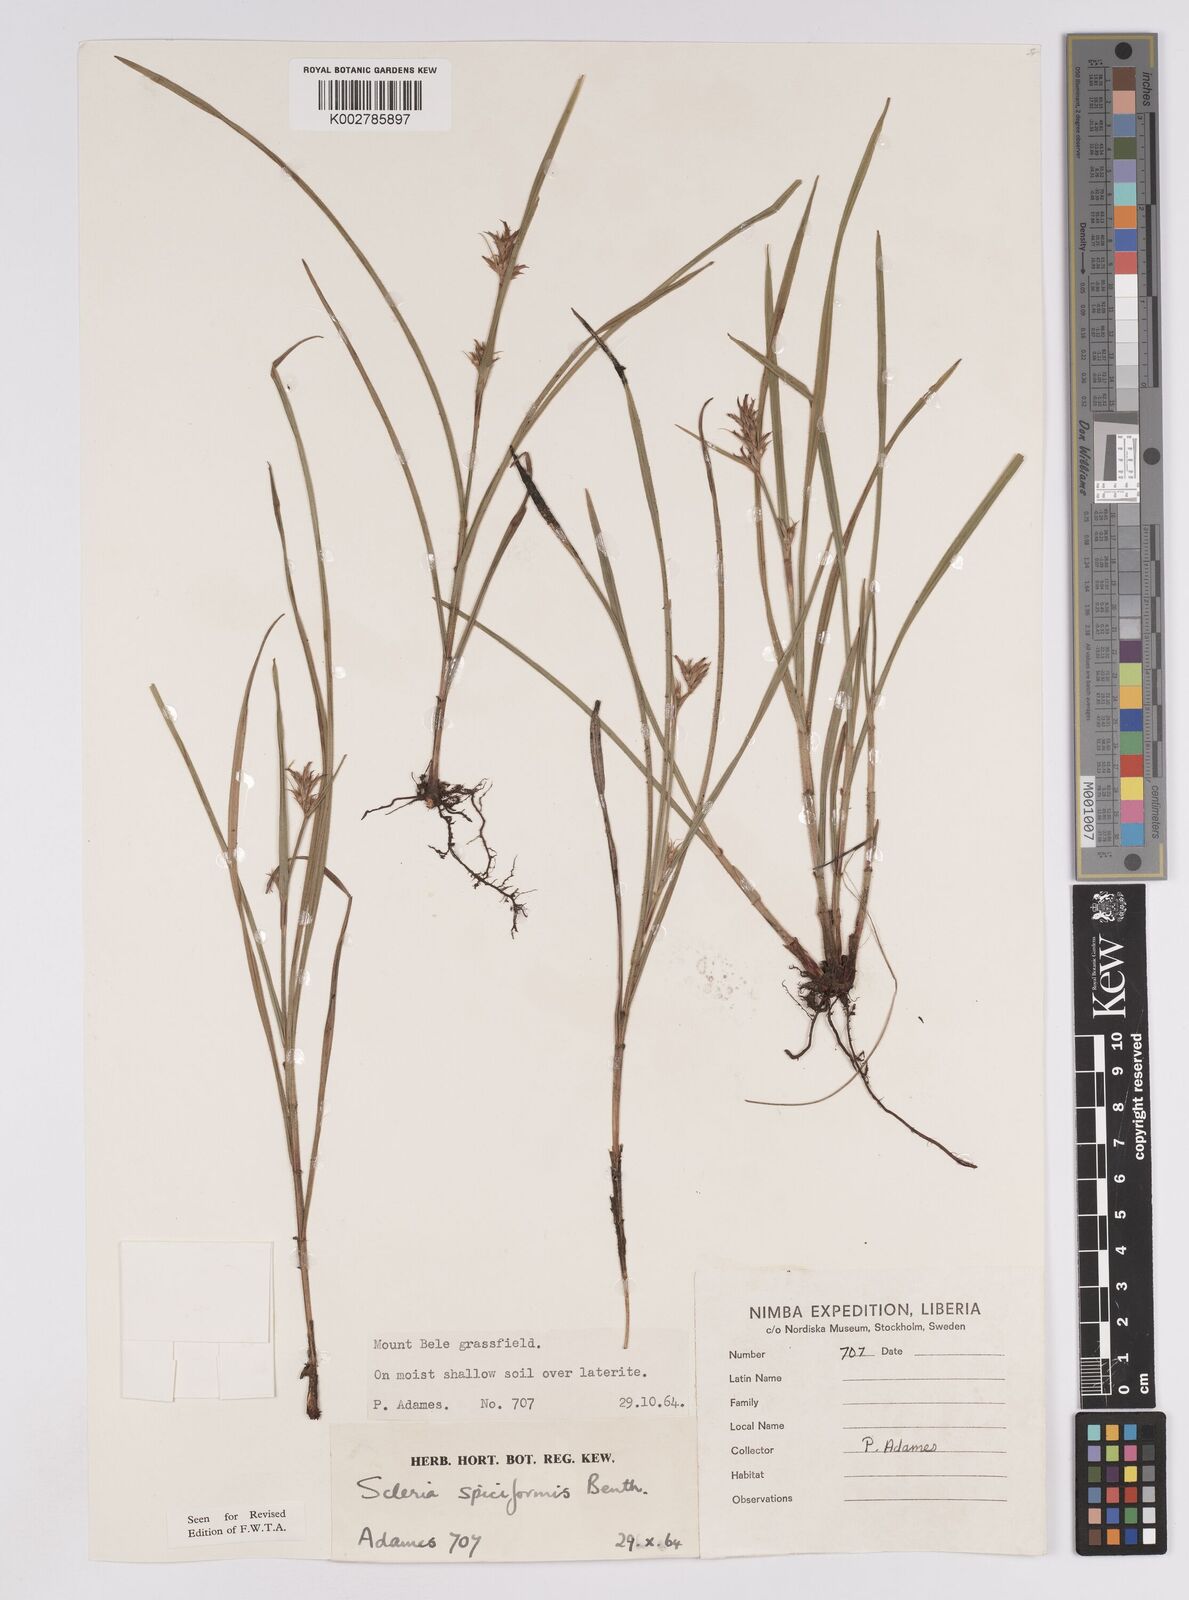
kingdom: Plantae
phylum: Tracheophyta
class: Liliopsida
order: Poales
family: Cyperaceae
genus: Scleria
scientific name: Scleria spiciformis
